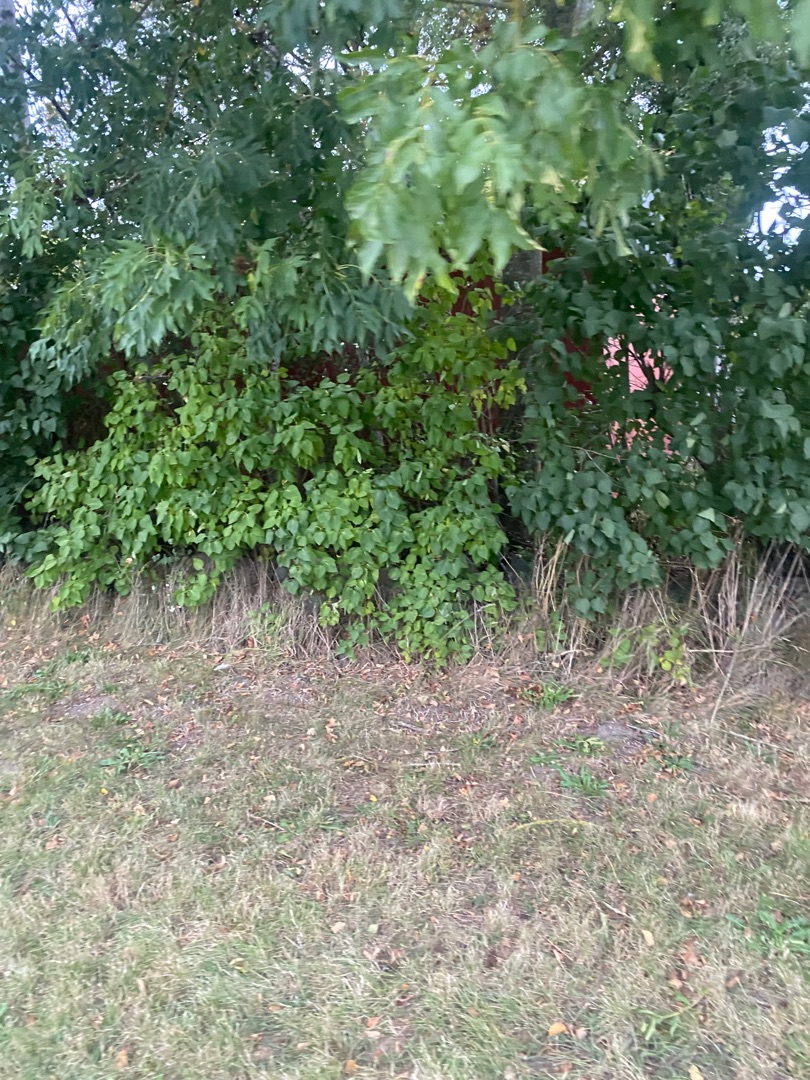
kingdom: Plantae
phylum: Tracheophyta
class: Magnoliopsida
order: Lamiales
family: Oleaceae
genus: Syringa
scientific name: Syringa vulgaris
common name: Syren
